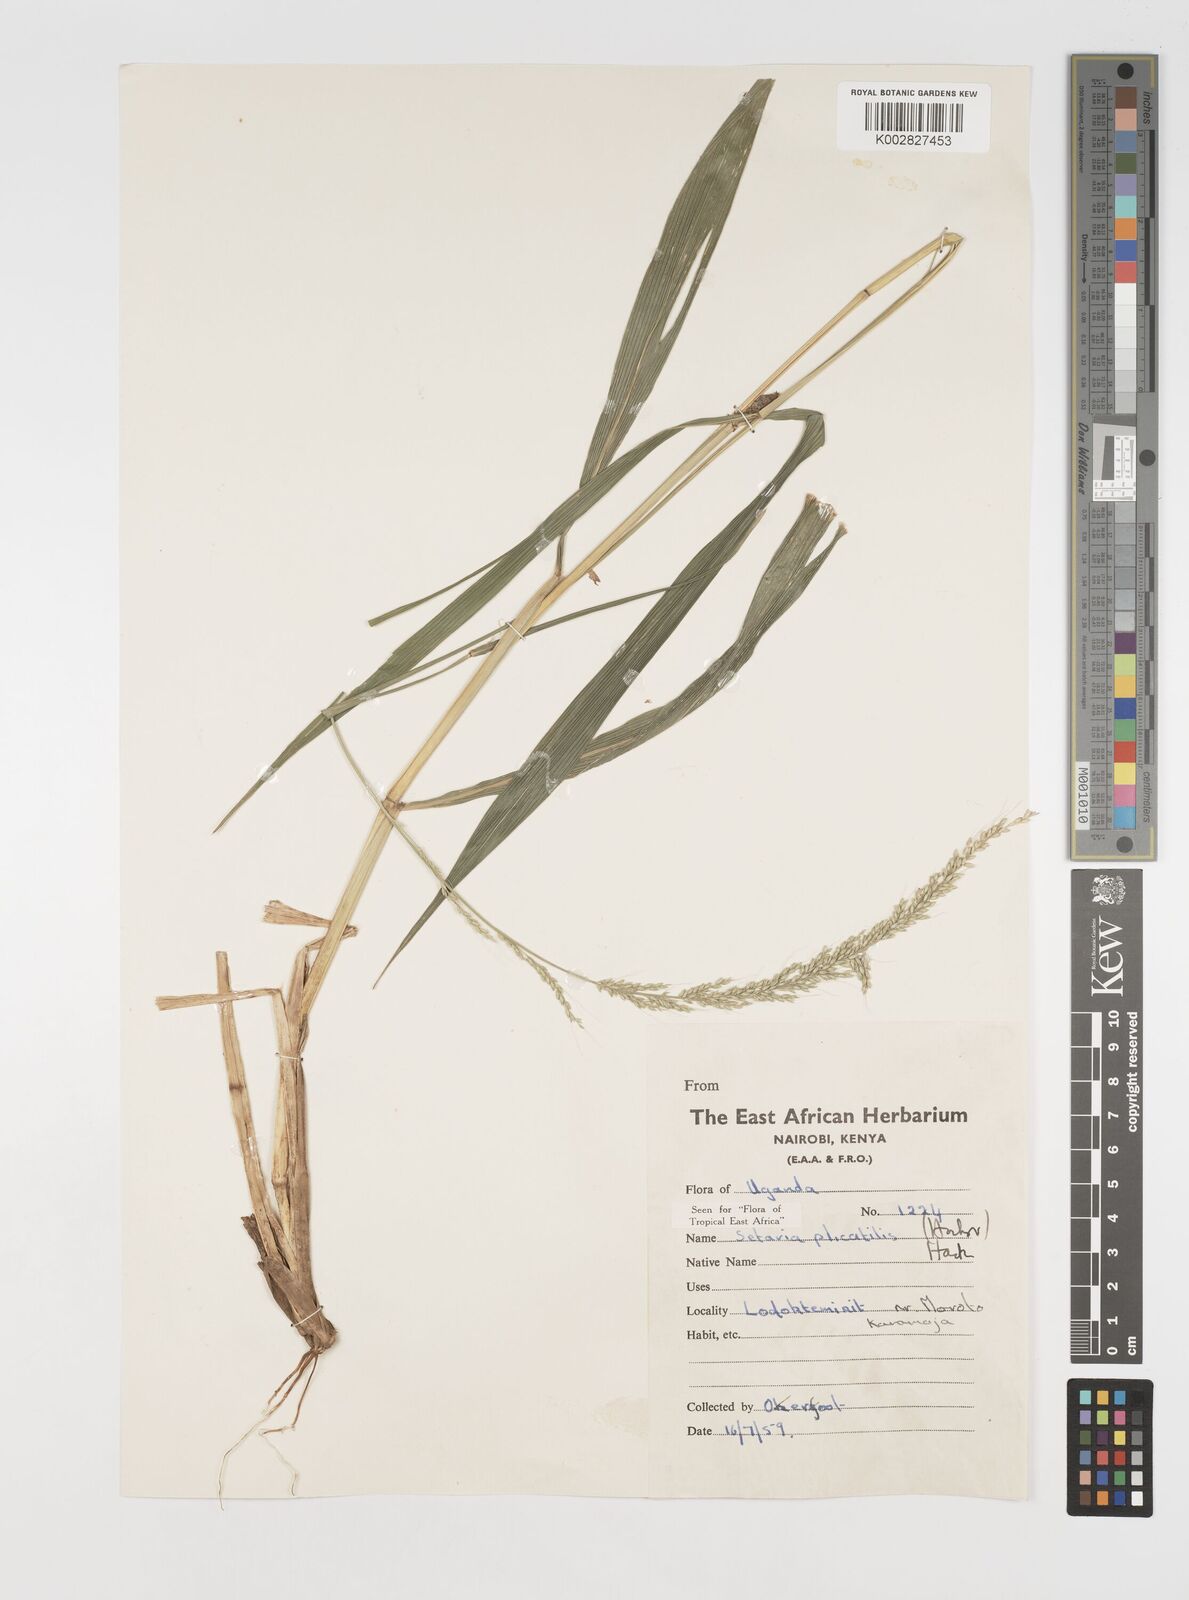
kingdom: Plantae
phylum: Tracheophyta
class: Liliopsida
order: Poales
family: Poaceae
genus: Setaria
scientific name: Setaria megaphylla
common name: Bigleaf bristlegrass
